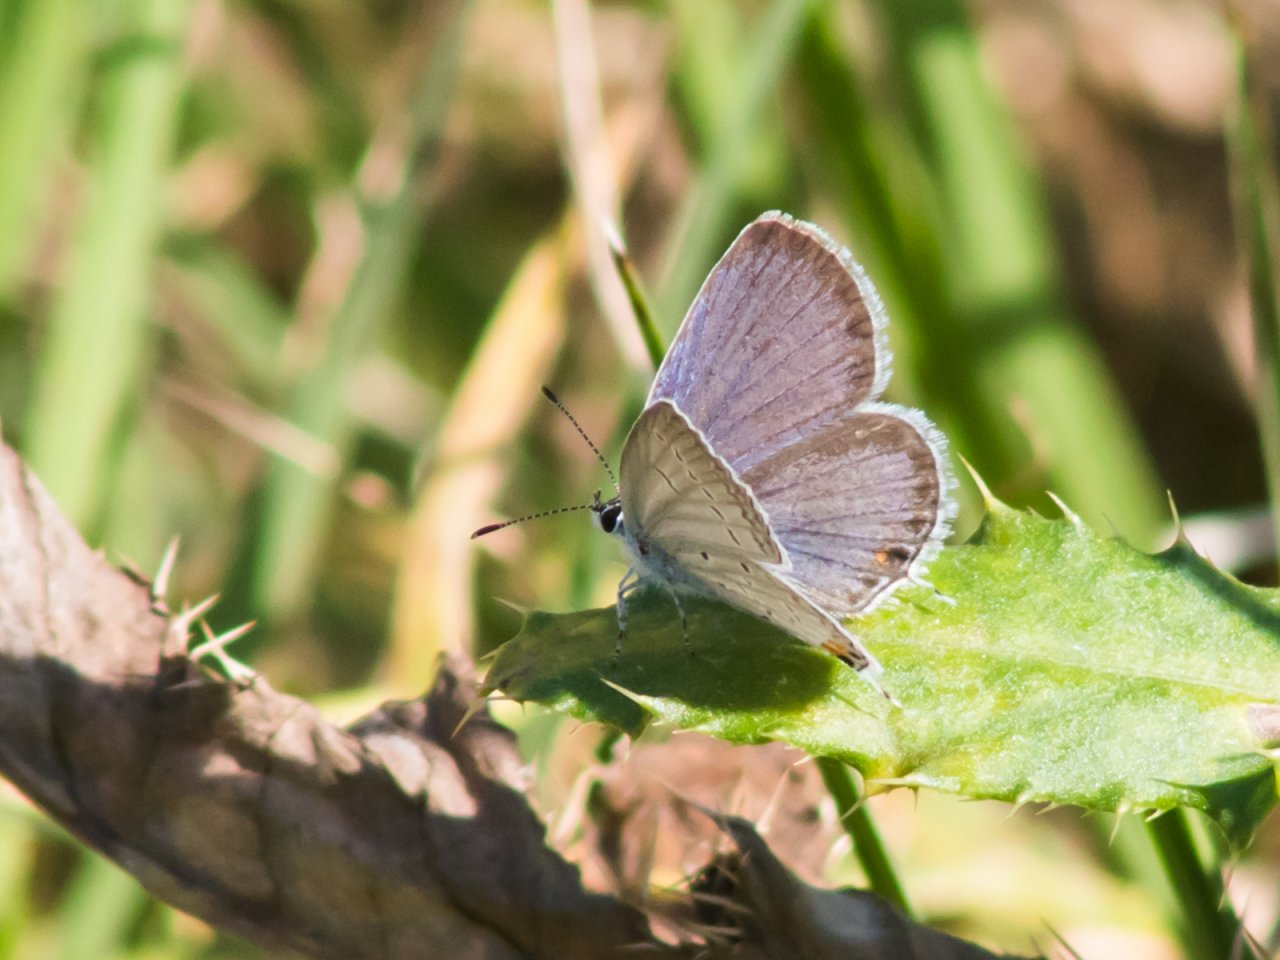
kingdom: Animalia
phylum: Arthropoda
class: Insecta
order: Lepidoptera
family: Lycaenidae
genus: Elkalyce
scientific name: Elkalyce comyntas
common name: Eastern Tailed-Blue
